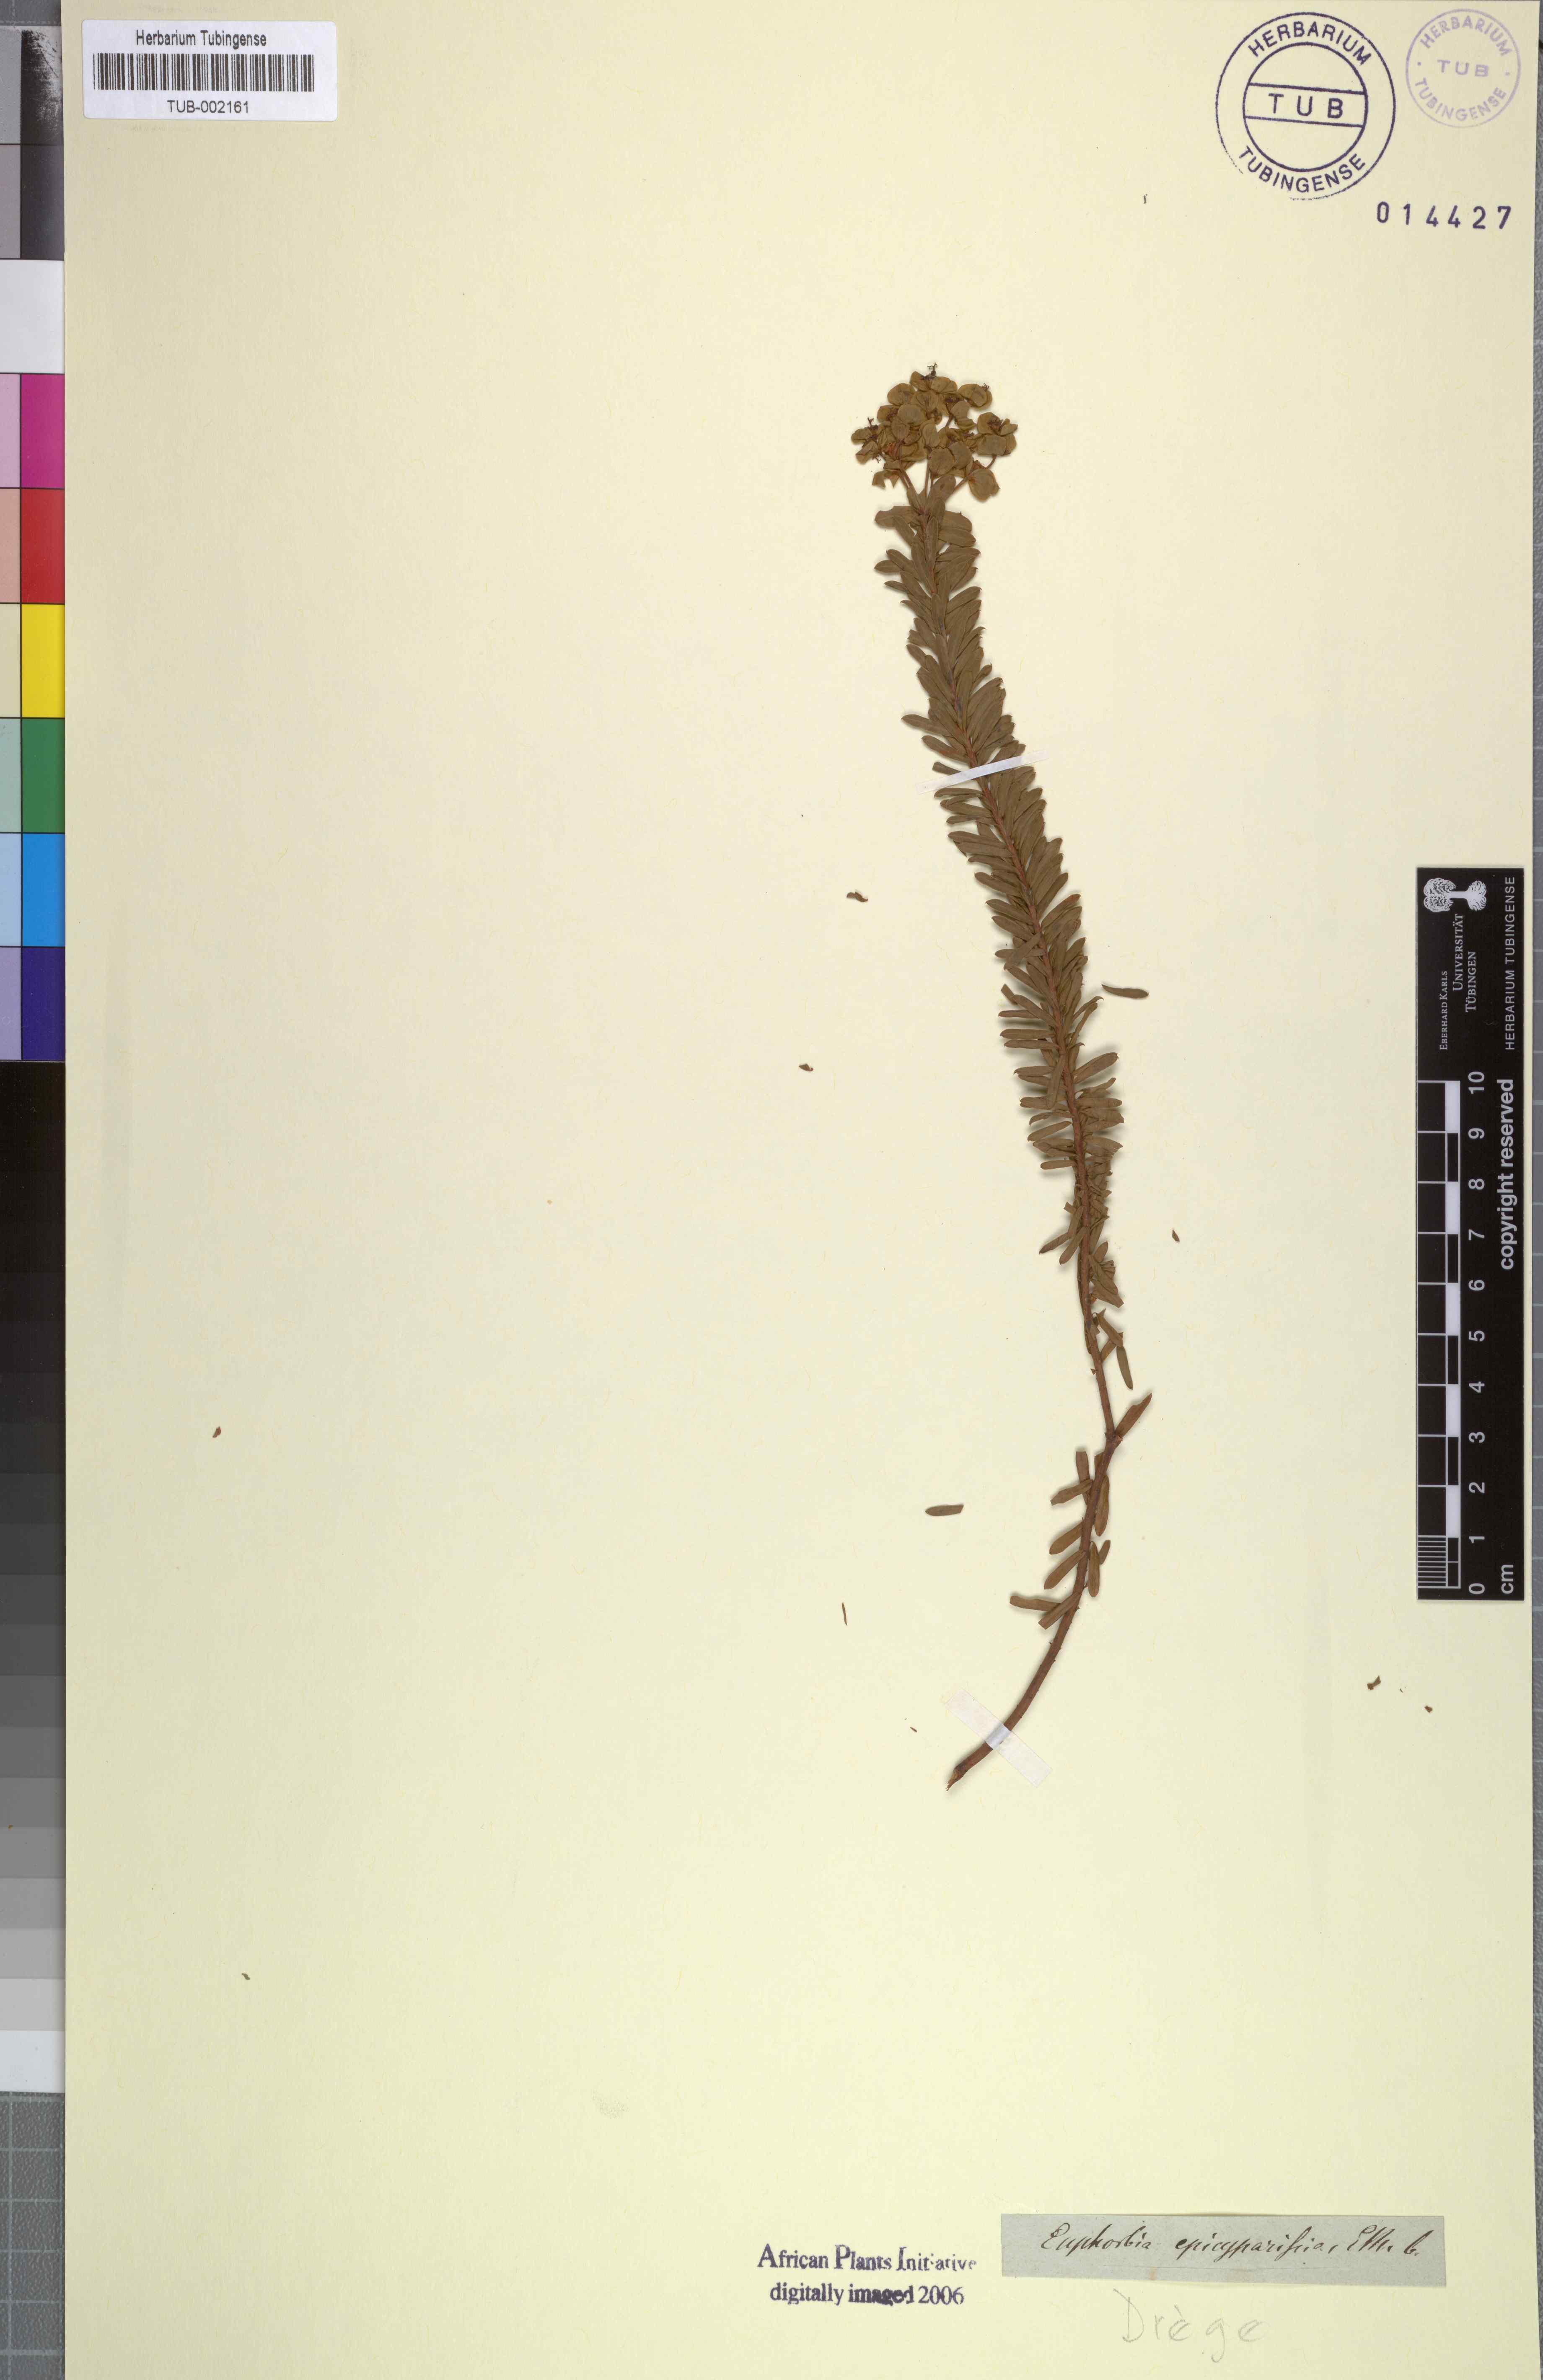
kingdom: Plantae
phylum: Tracheophyta
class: Magnoliopsida
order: Malpighiales
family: Euphorbiaceae
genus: Euphorbia
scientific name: Euphorbia natalensis
